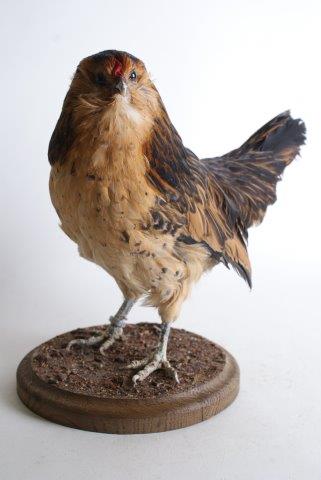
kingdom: Animalia
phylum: Chordata
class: Aves
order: Galliformes
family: Phasianidae
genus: Gallus
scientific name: Gallus gallus
